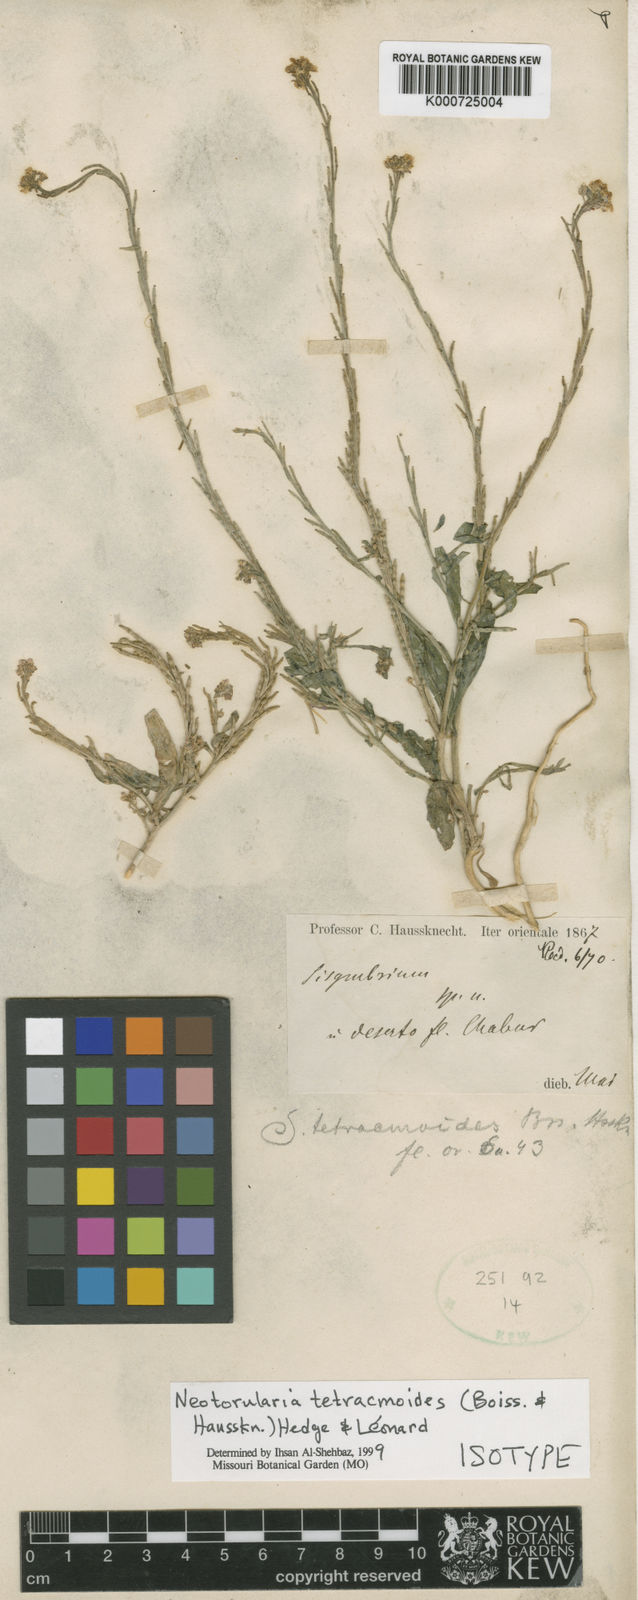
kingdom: Plantae
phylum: Tracheophyta
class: Magnoliopsida
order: Brassicales
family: Brassicaceae
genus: Neotorularia
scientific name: Neotorularia
